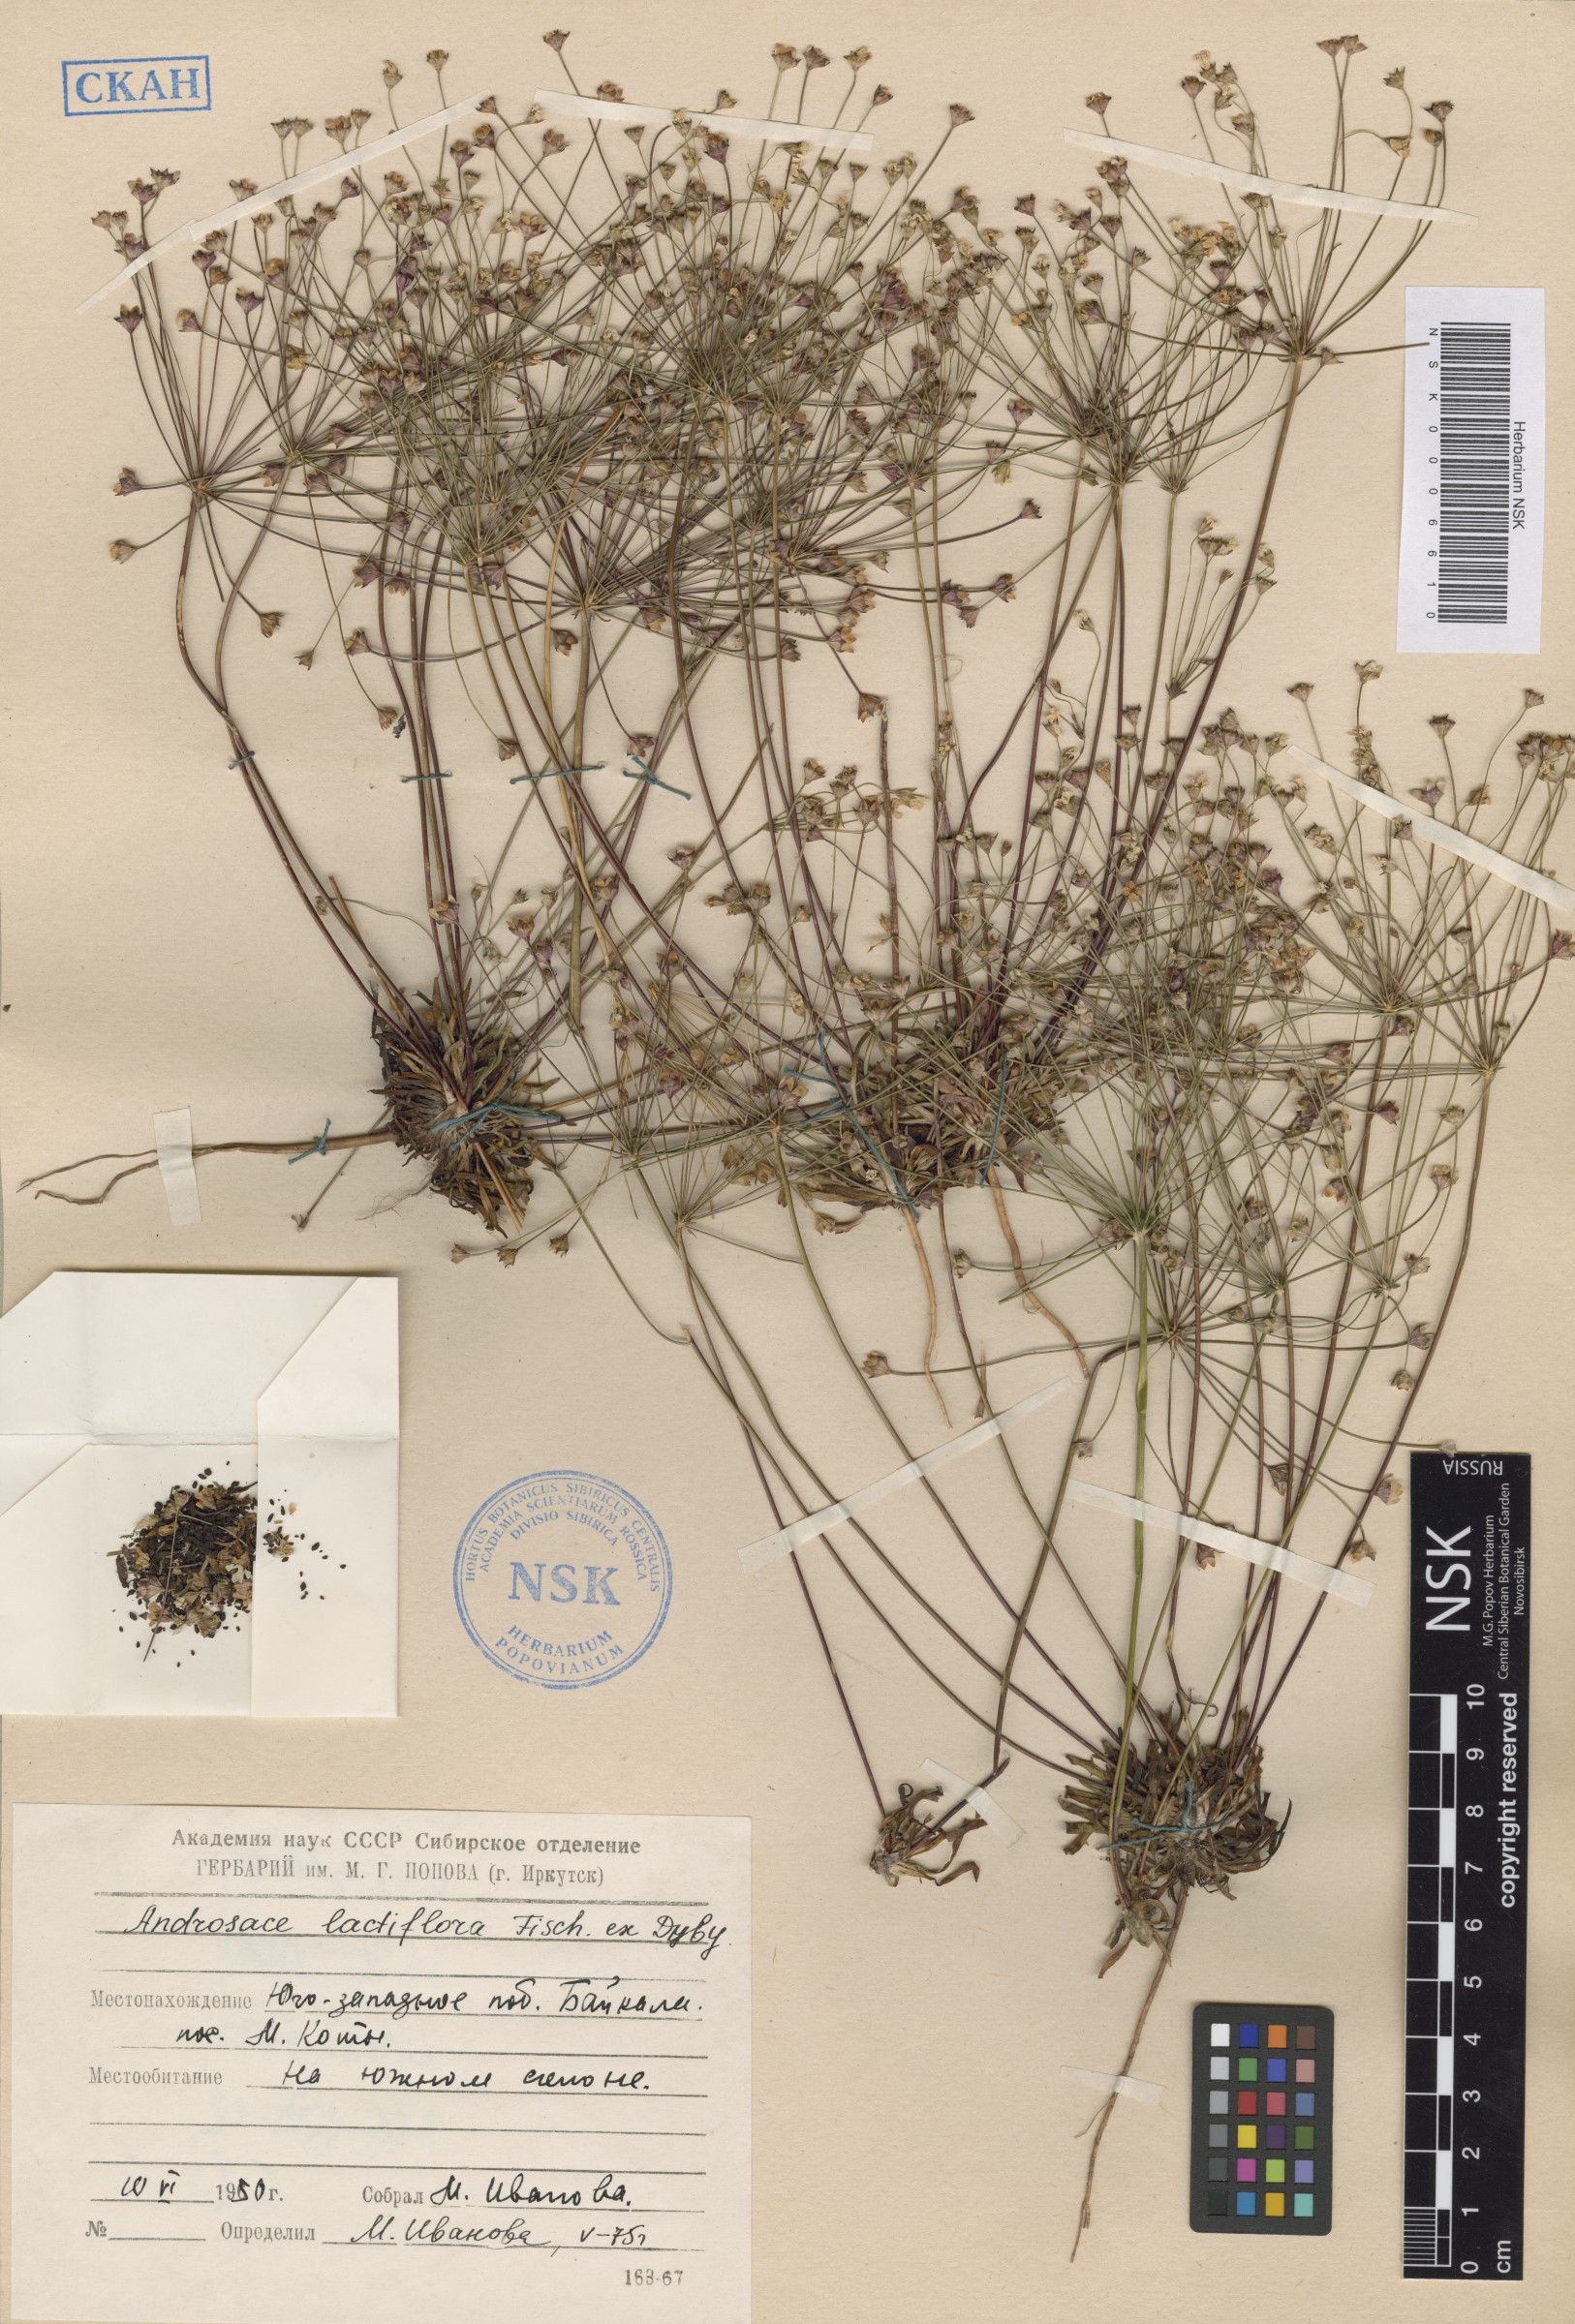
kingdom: Plantae
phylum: Tracheophyta
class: Magnoliopsida
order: Ericales
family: Primulaceae
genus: Androsace
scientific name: Androsace lactiflora
